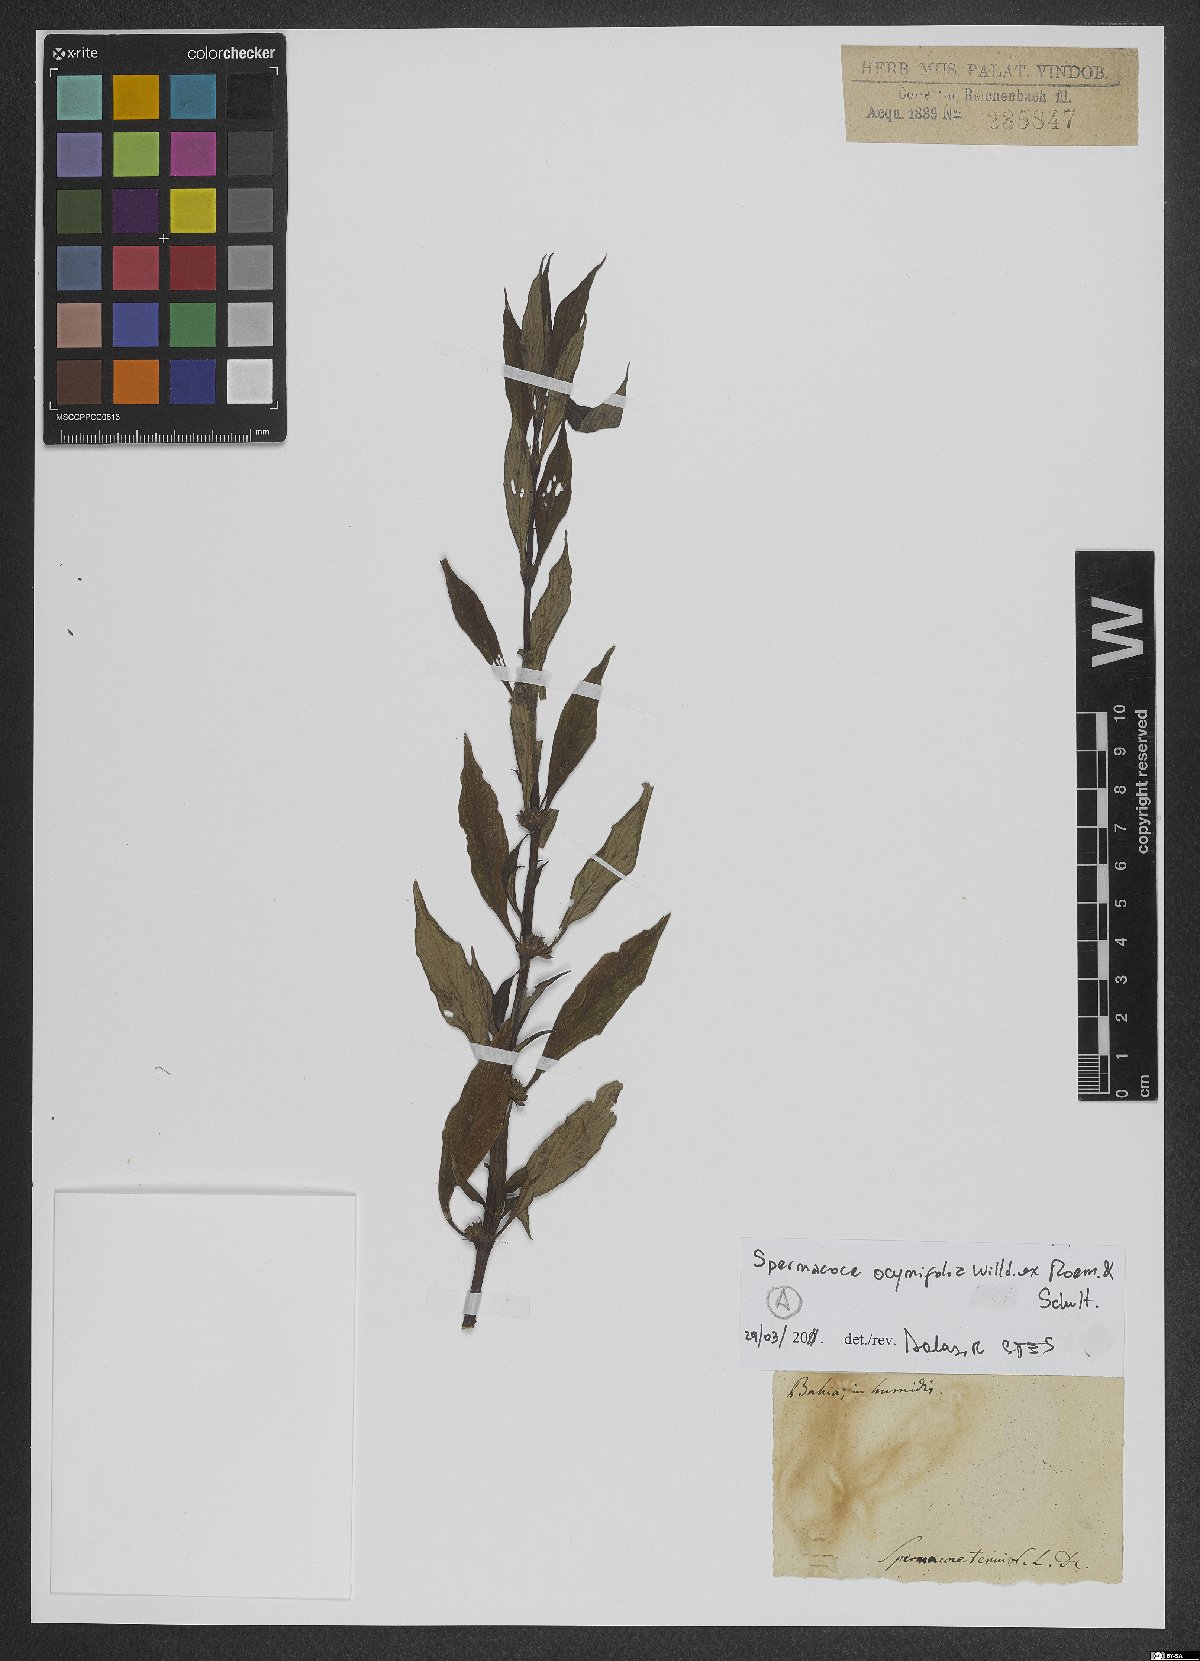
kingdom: Plantae
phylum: Tracheophyta
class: Magnoliopsida
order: Gentianales
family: Rubiaceae
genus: Spermacoce
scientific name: Spermacoce ocymifolia
